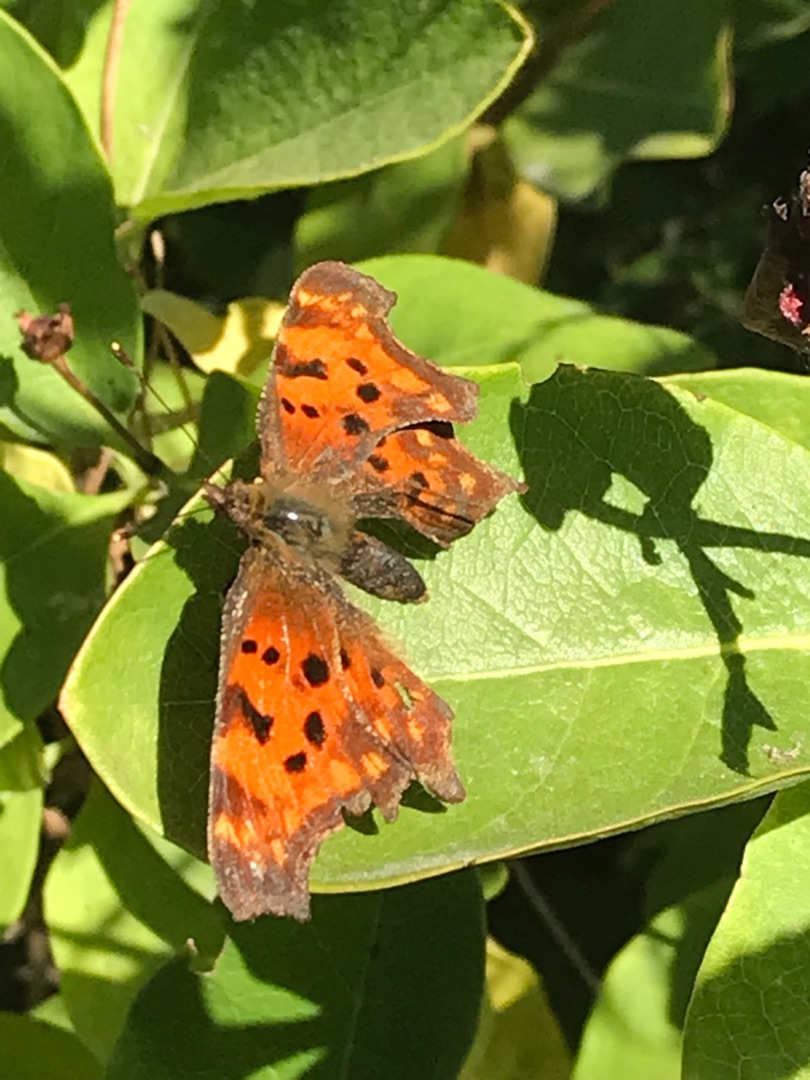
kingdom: Animalia
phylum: Arthropoda
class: Insecta
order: Lepidoptera
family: Nymphalidae
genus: Polygonia
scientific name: Polygonia c-album
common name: Det hvide C
